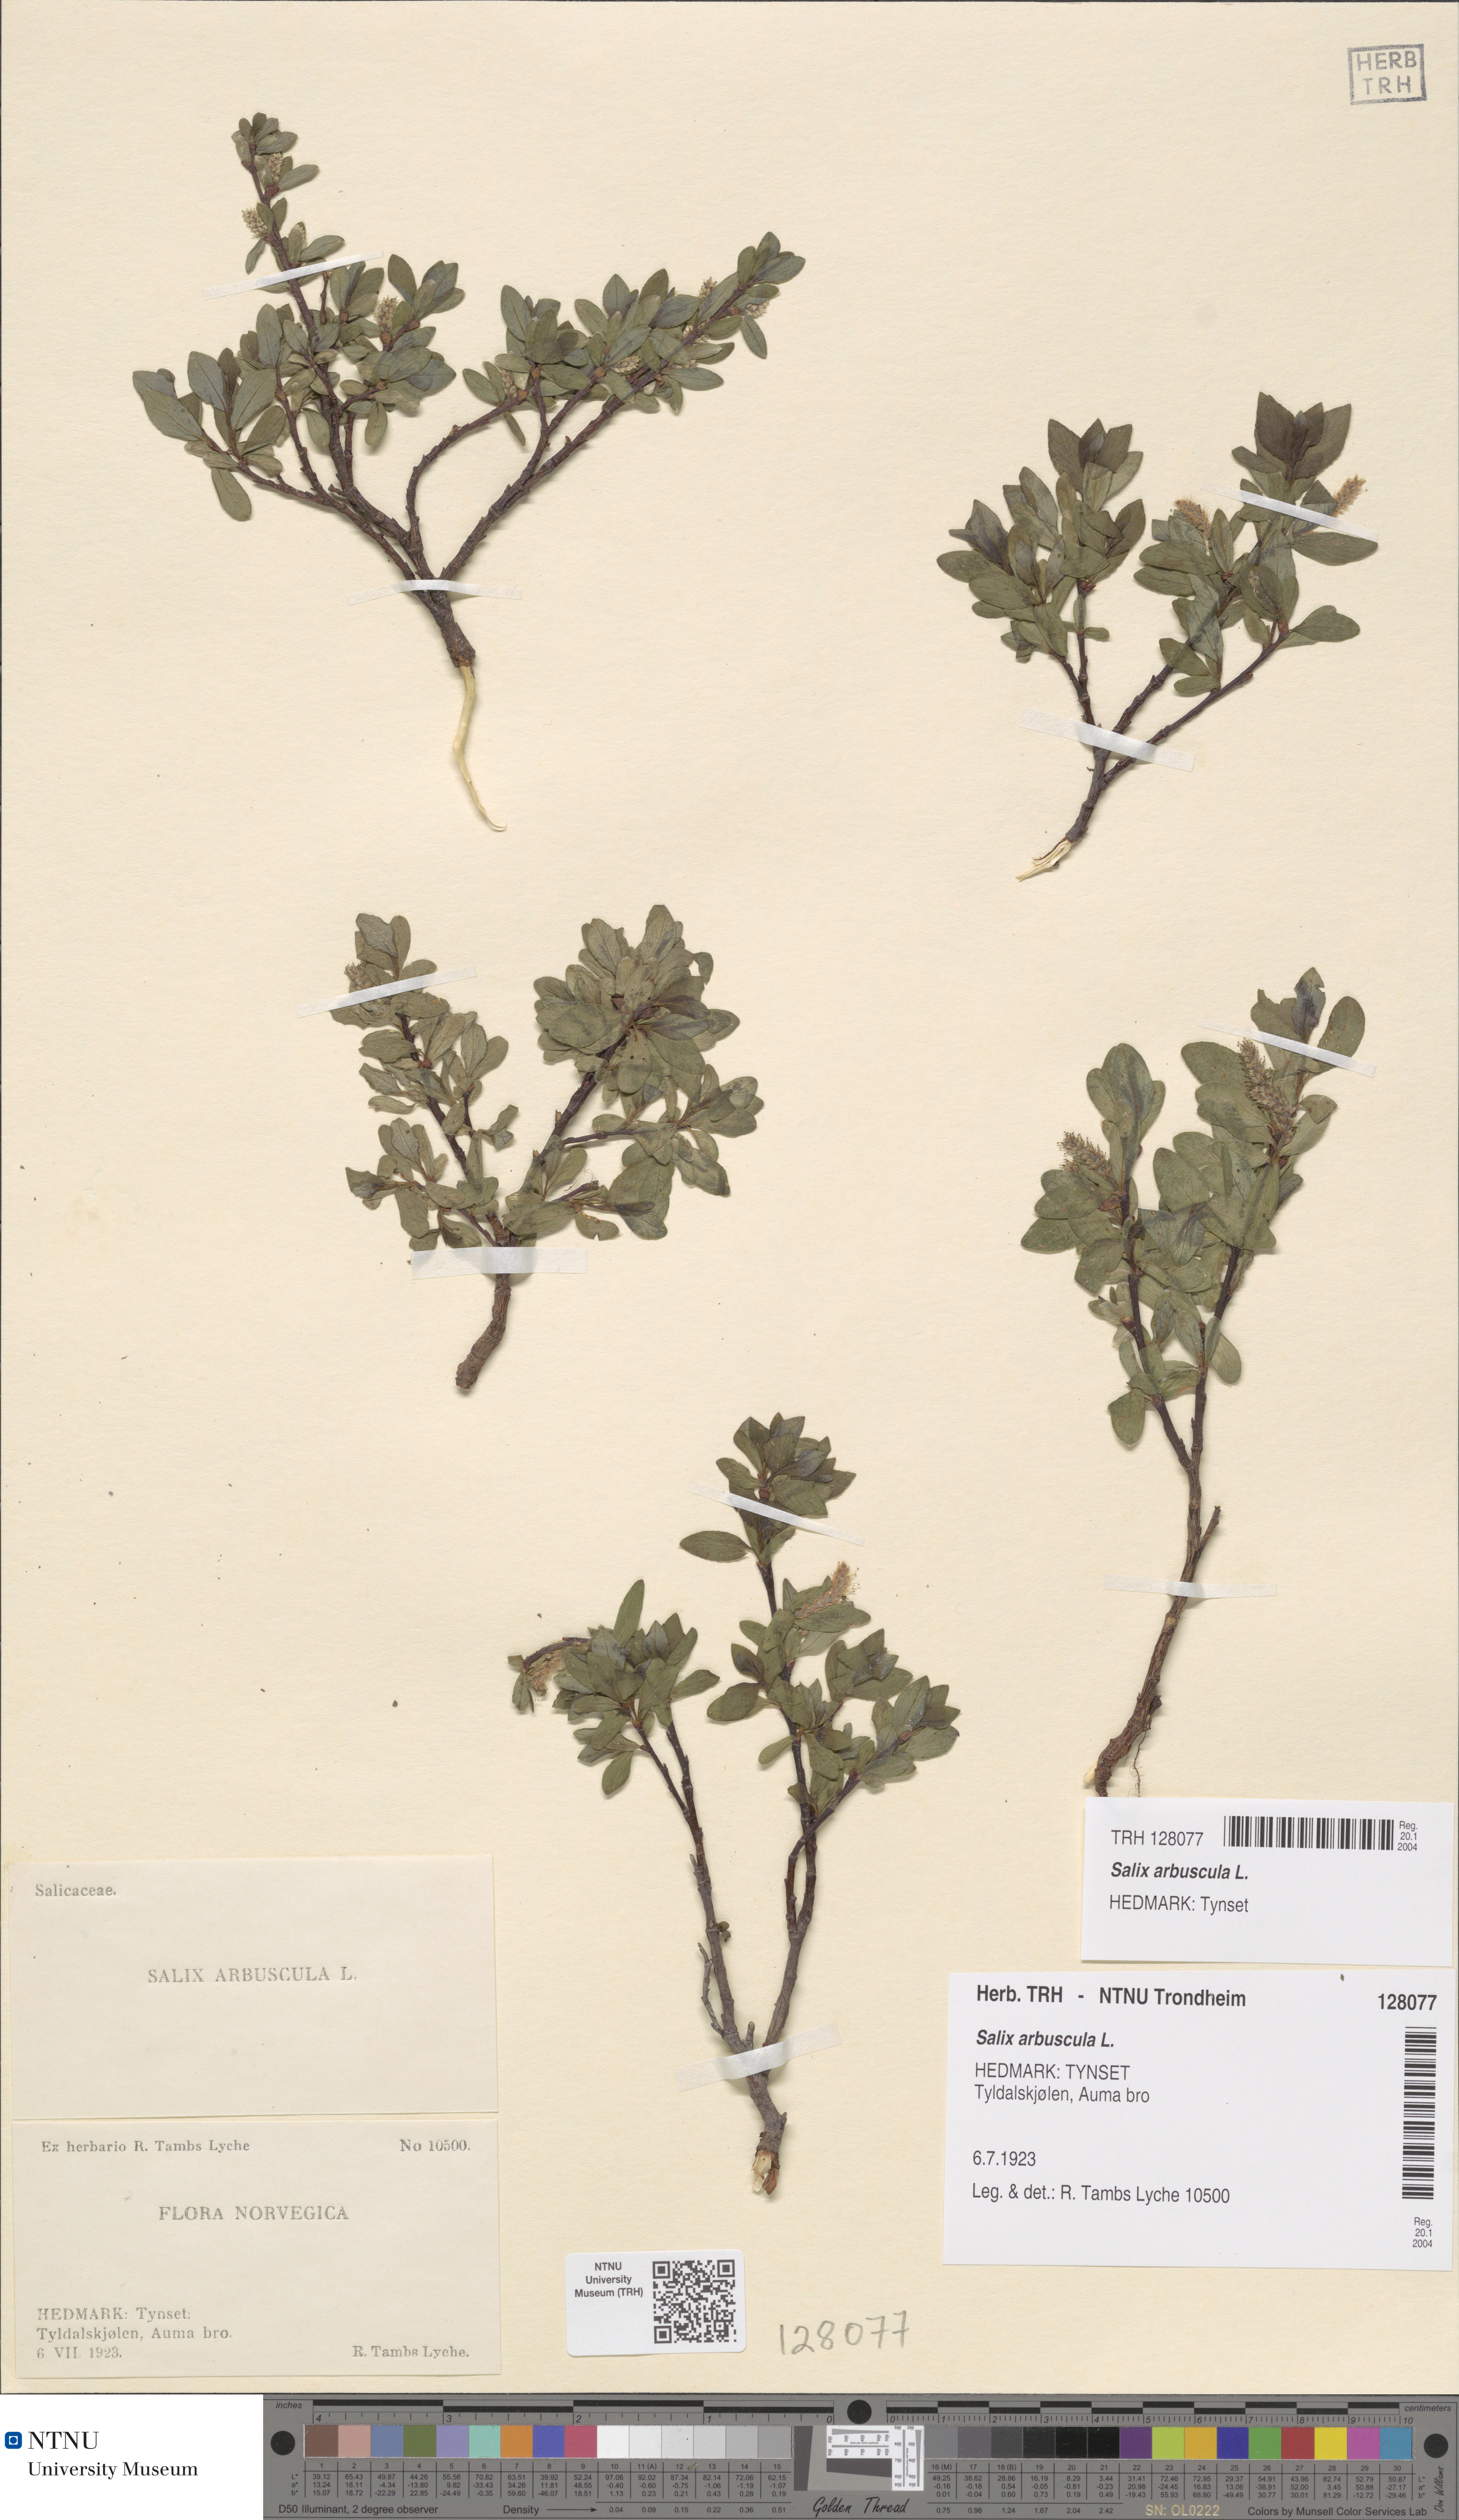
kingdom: Plantae
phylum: Tracheophyta
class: Magnoliopsida
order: Malpighiales
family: Salicaceae
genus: Salix
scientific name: Salix arbuscula
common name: Mountain willow
